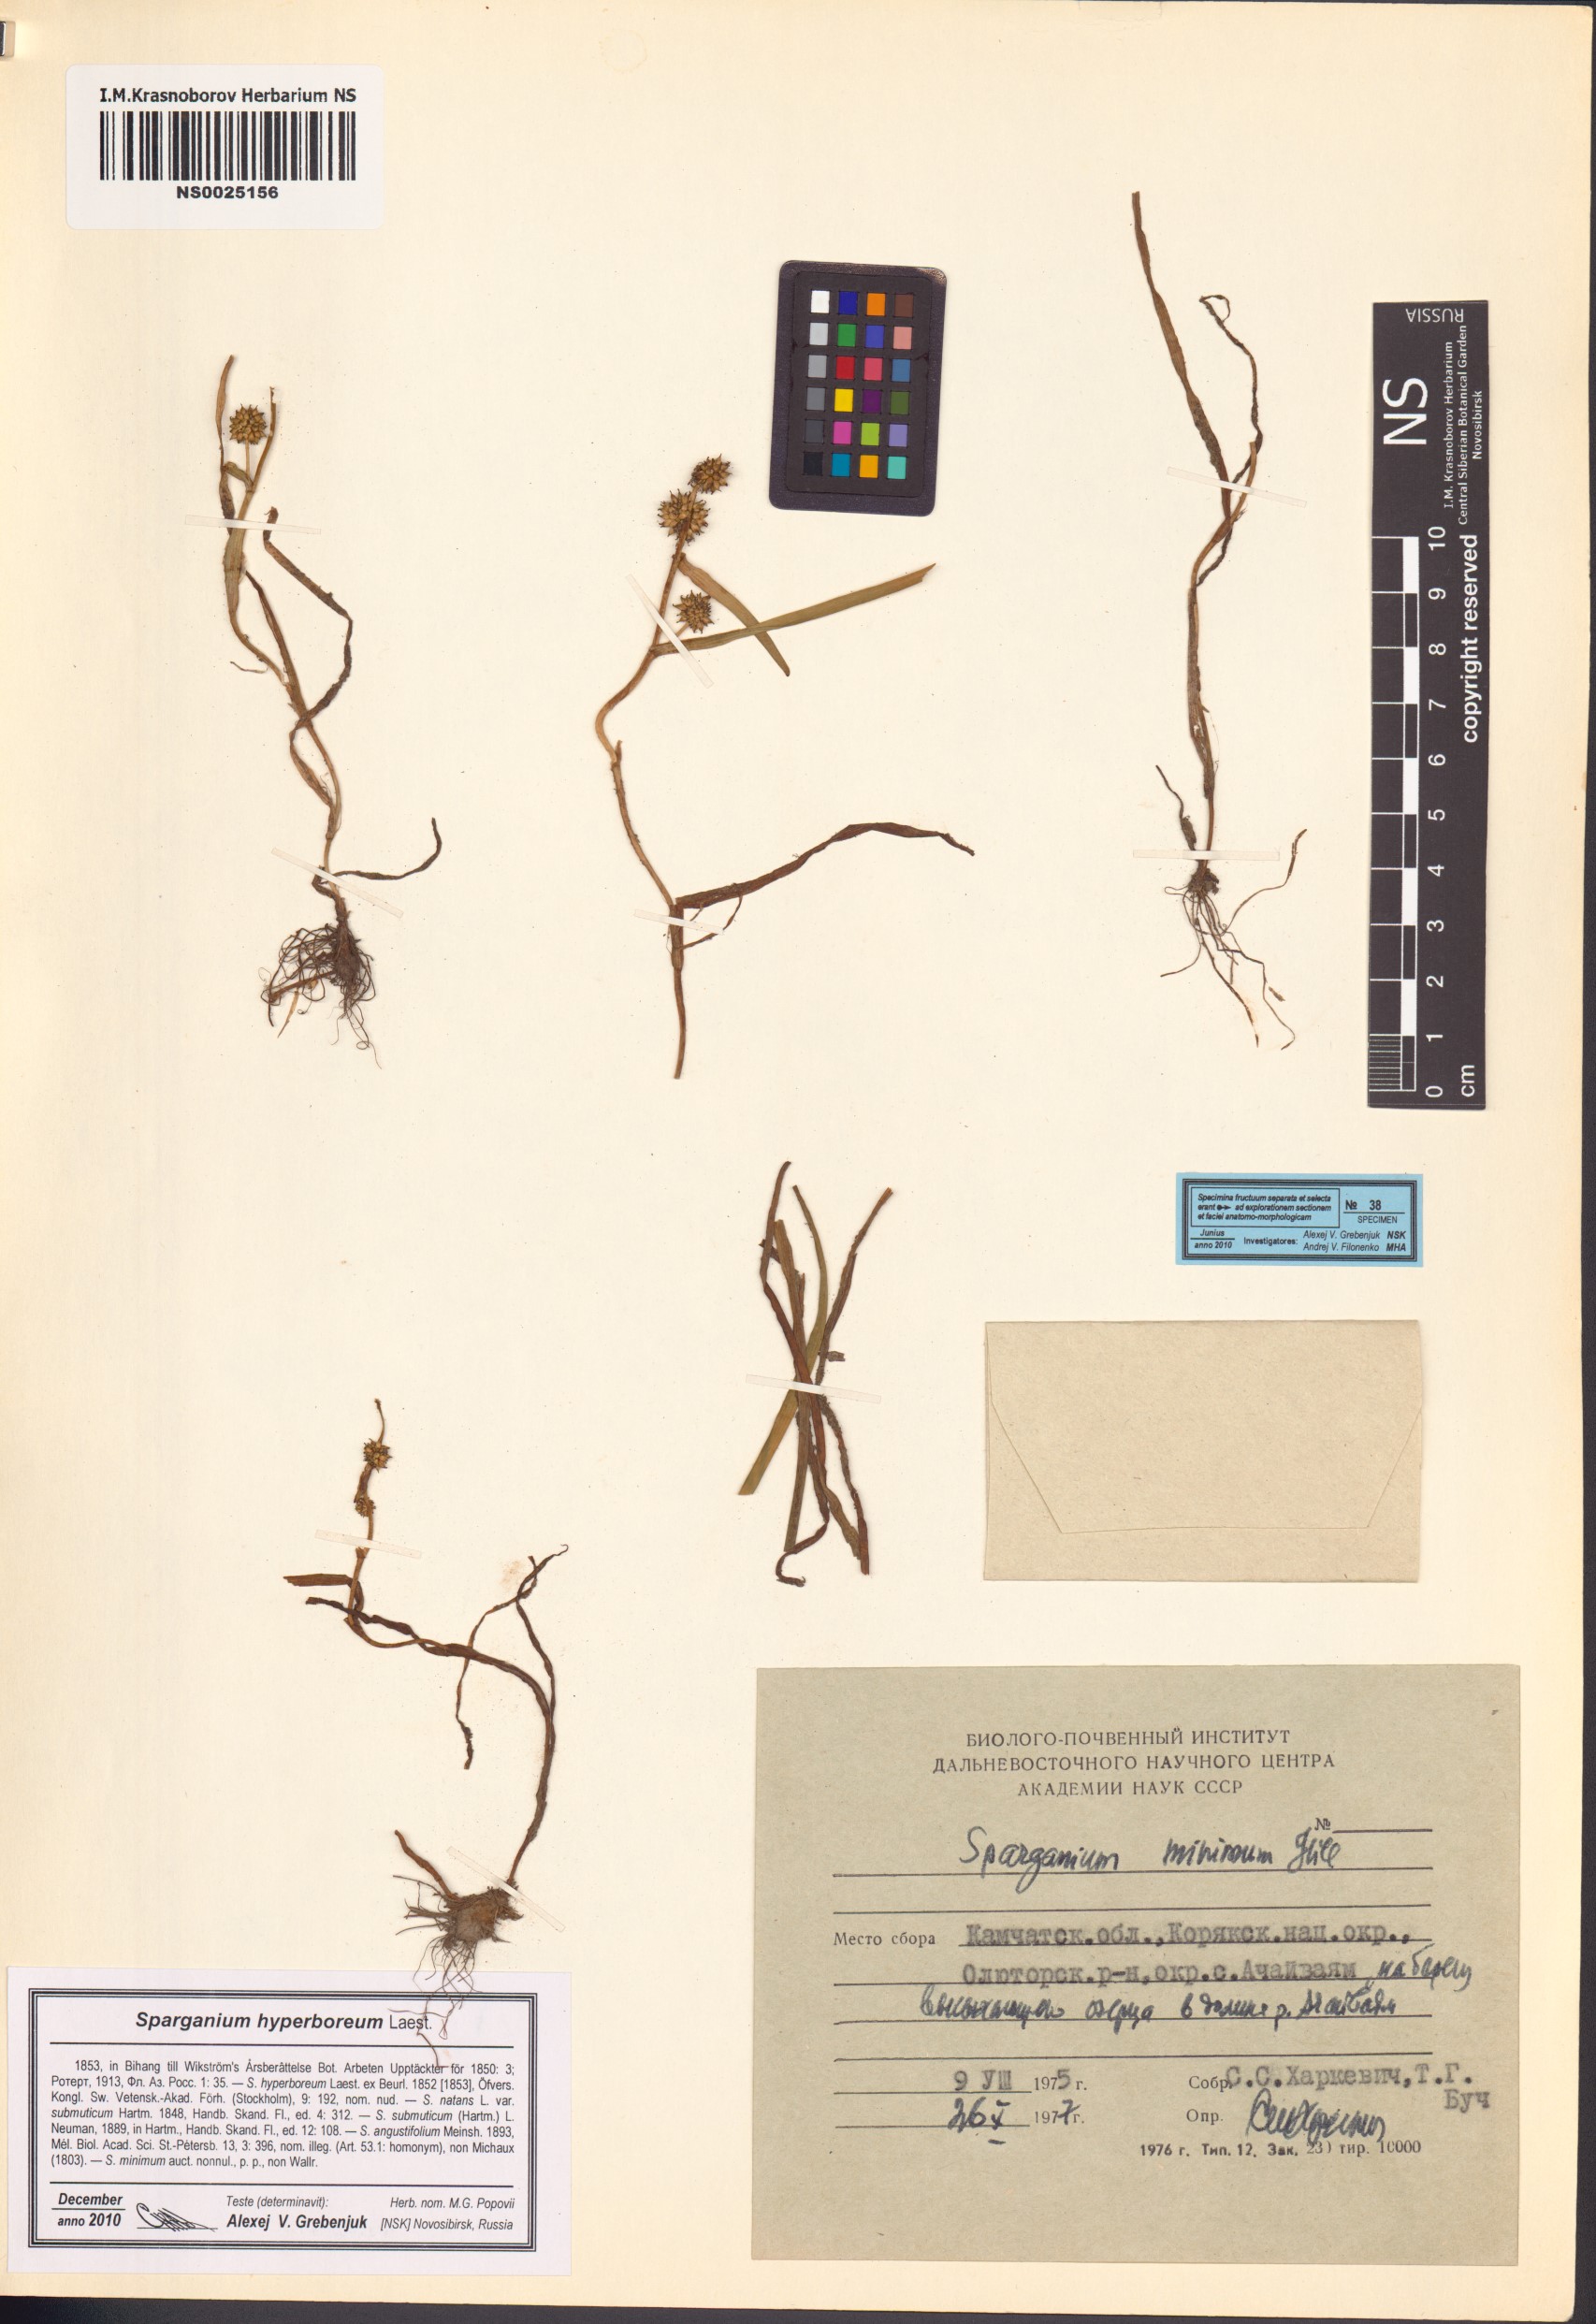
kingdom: Plantae
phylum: Tracheophyta
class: Liliopsida
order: Poales
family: Typhaceae
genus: Sparganium
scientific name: Sparganium hyperboreum
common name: Arctic burreed
